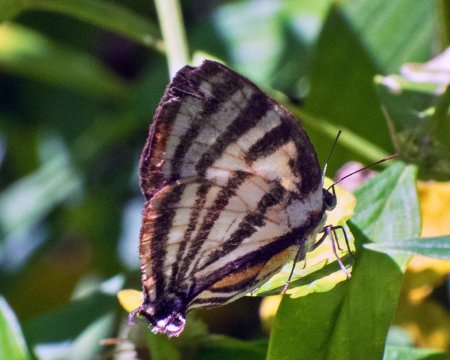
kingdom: Animalia
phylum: Arthropoda
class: Insecta
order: Lepidoptera
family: Lycaenidae
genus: Thecla
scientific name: Thecla aetolus
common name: Aetolus Stripestreak
